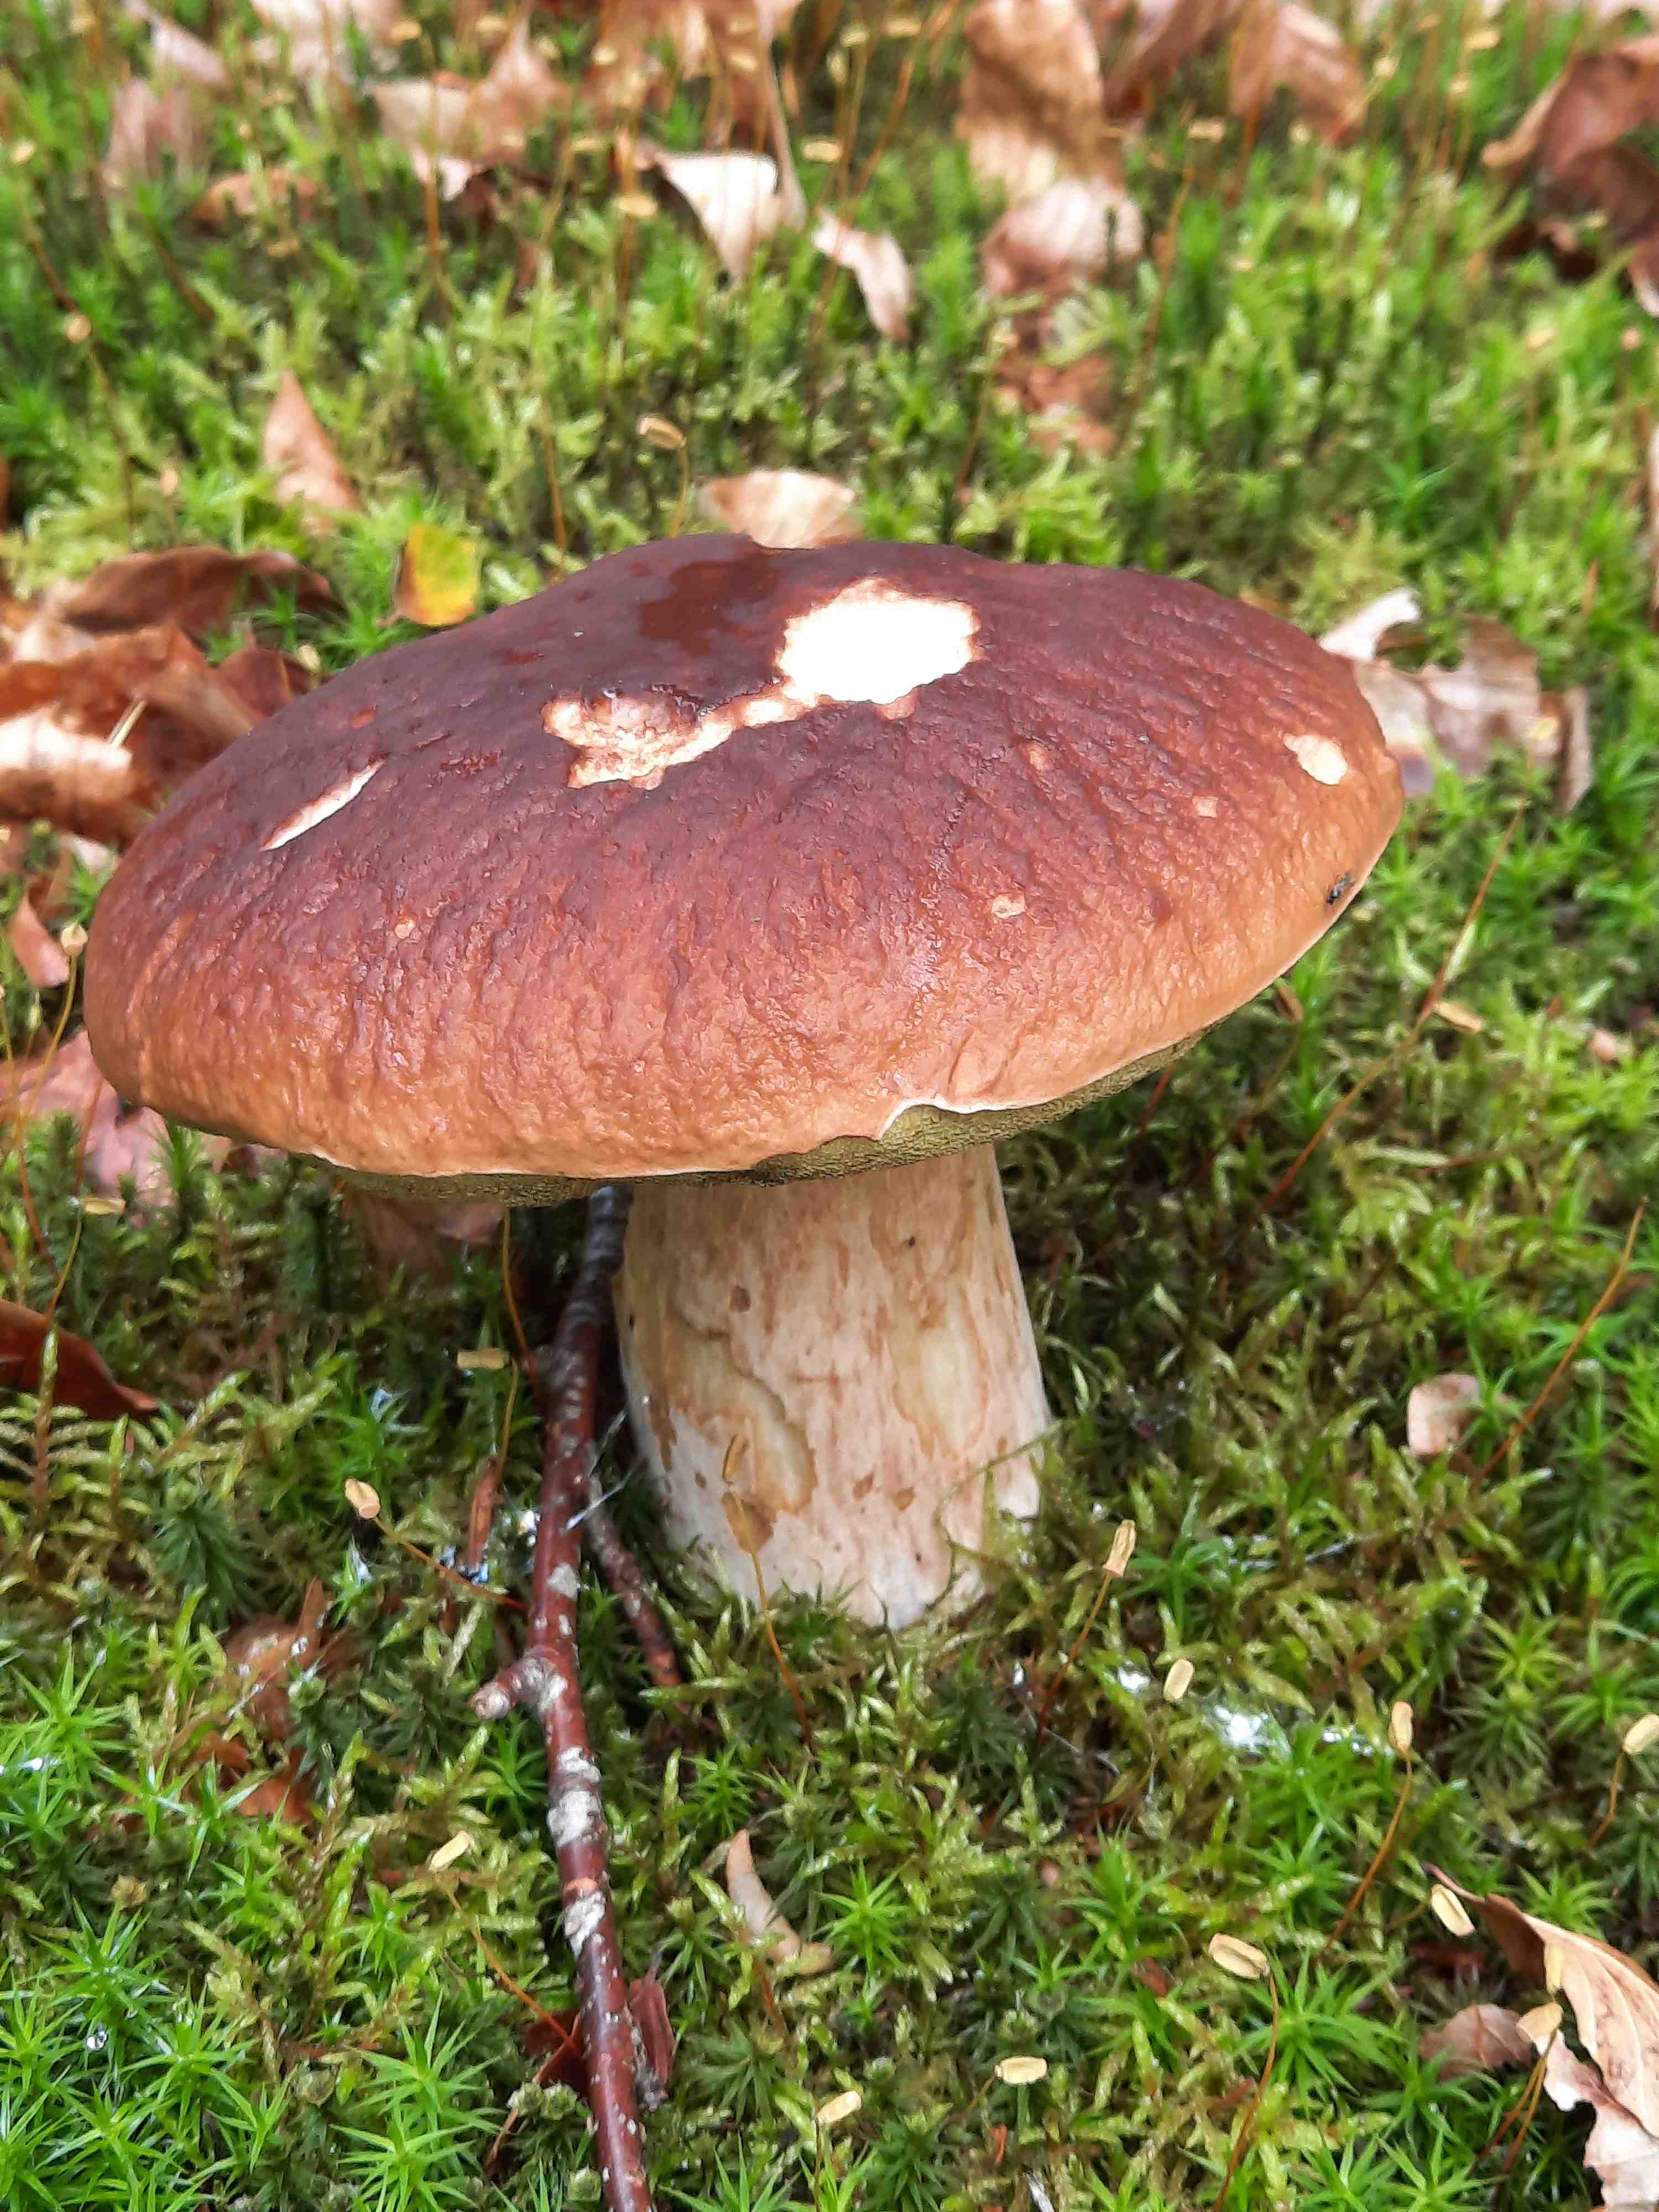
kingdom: Fungi
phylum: Basidiomycota
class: Agaricomycetes
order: Boletales
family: Boletaceae
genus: Boletus
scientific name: Boletus edulis
